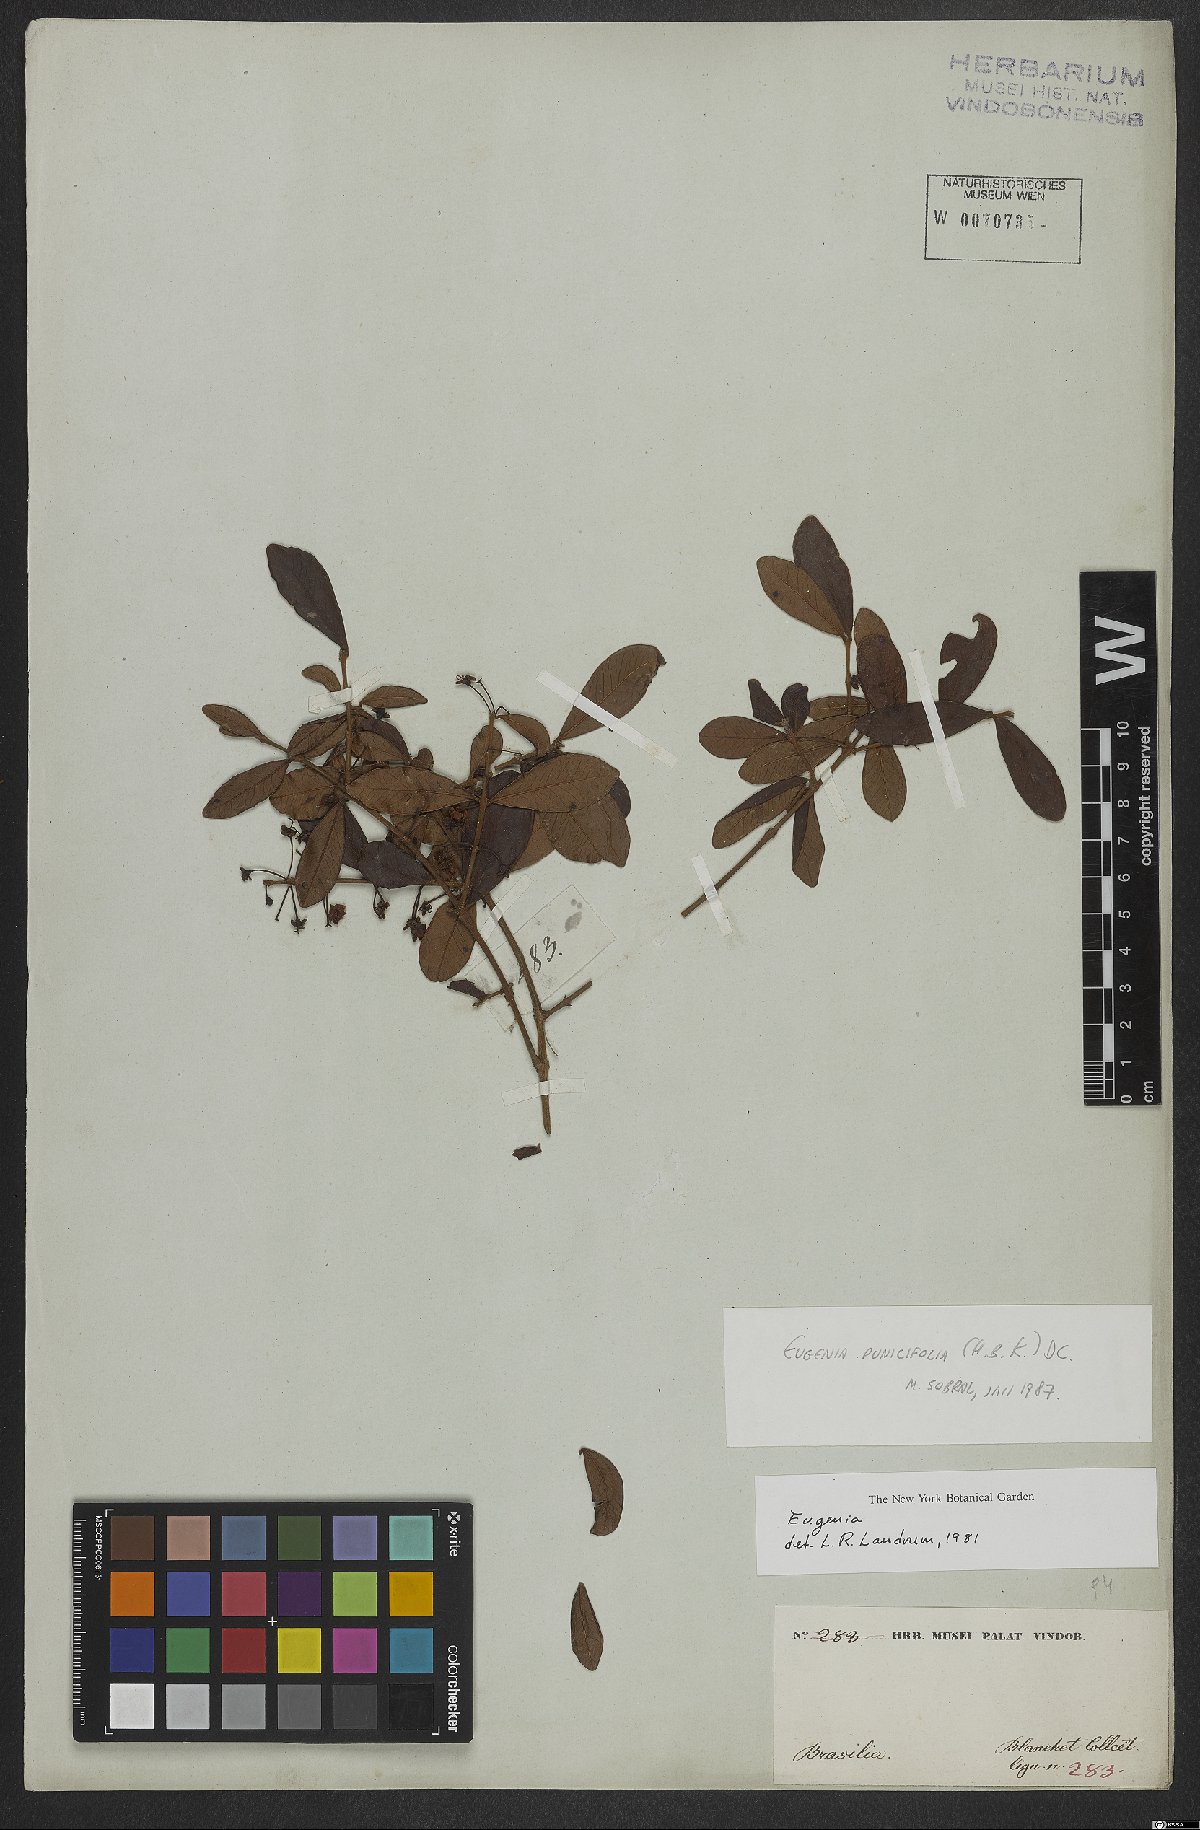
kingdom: Plantae
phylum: Tracheophyta
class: Magnoliopsida
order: Myrtales
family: Myrtaceae
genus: Eugenia
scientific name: Eugenia punicifolia
